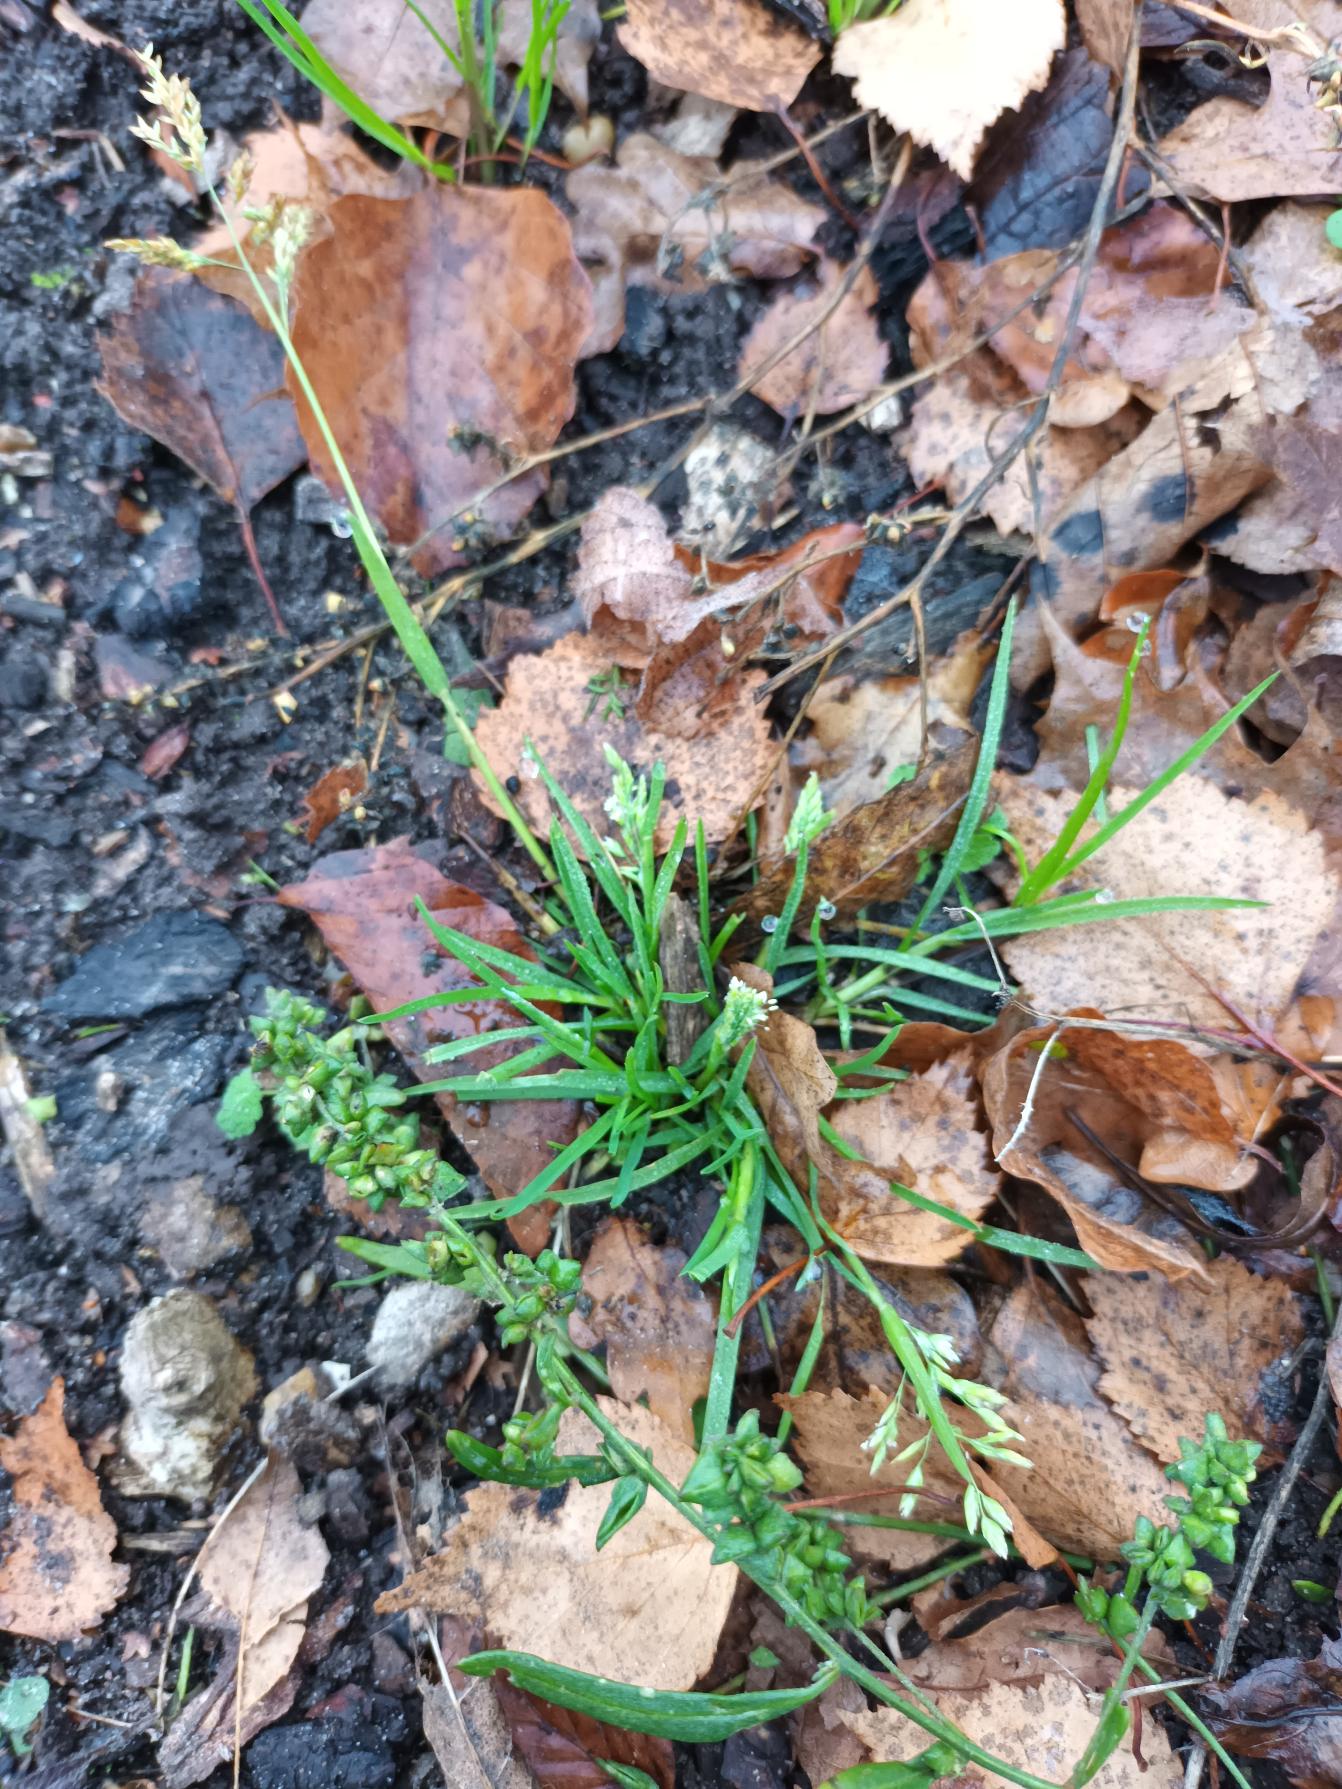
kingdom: Plantae
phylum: Tracheophyta
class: Liliopsida
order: Poales
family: Poaceae
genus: Poa
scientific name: Poa annua
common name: Enårig rapgræs
